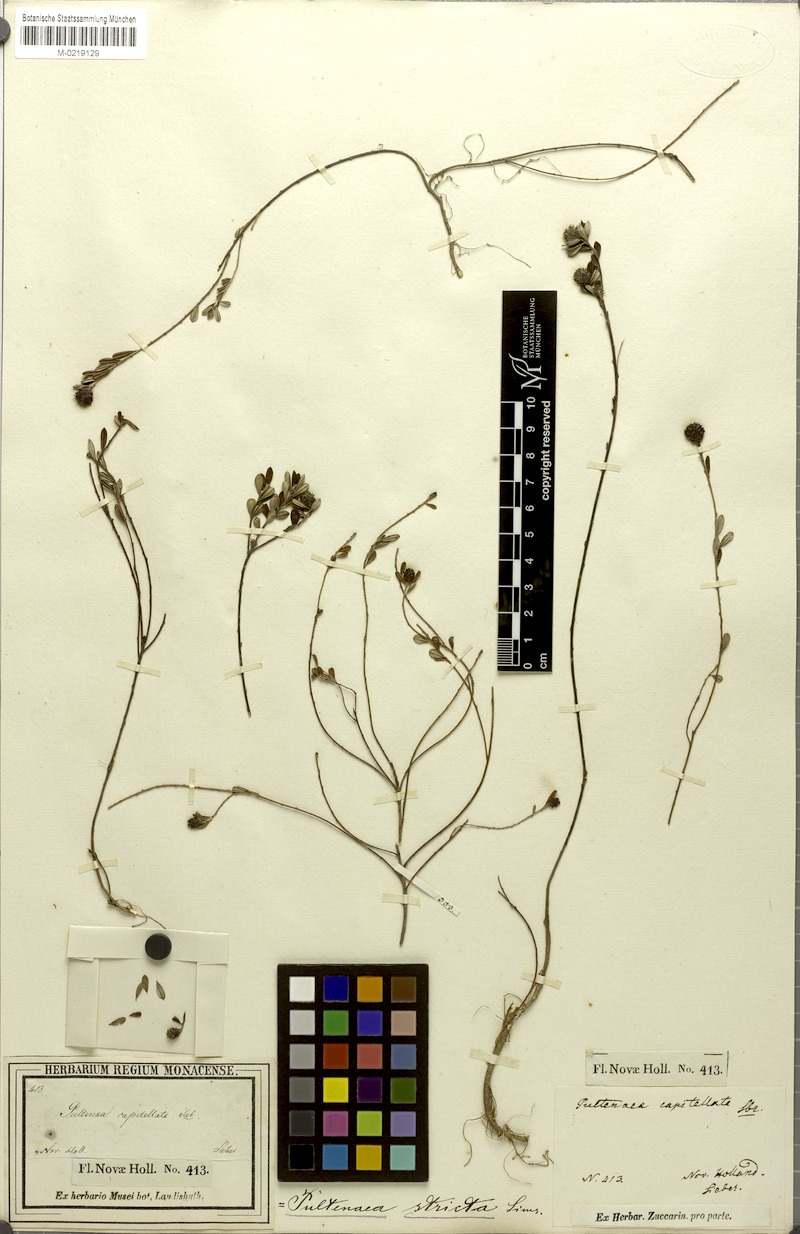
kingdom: Plantae
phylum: Tracheophyta
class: Magnoliopsida
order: Fabales
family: Fabaceae
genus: Pultenaea
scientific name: Pultenaea capitellata
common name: Hard-head bush-pea
